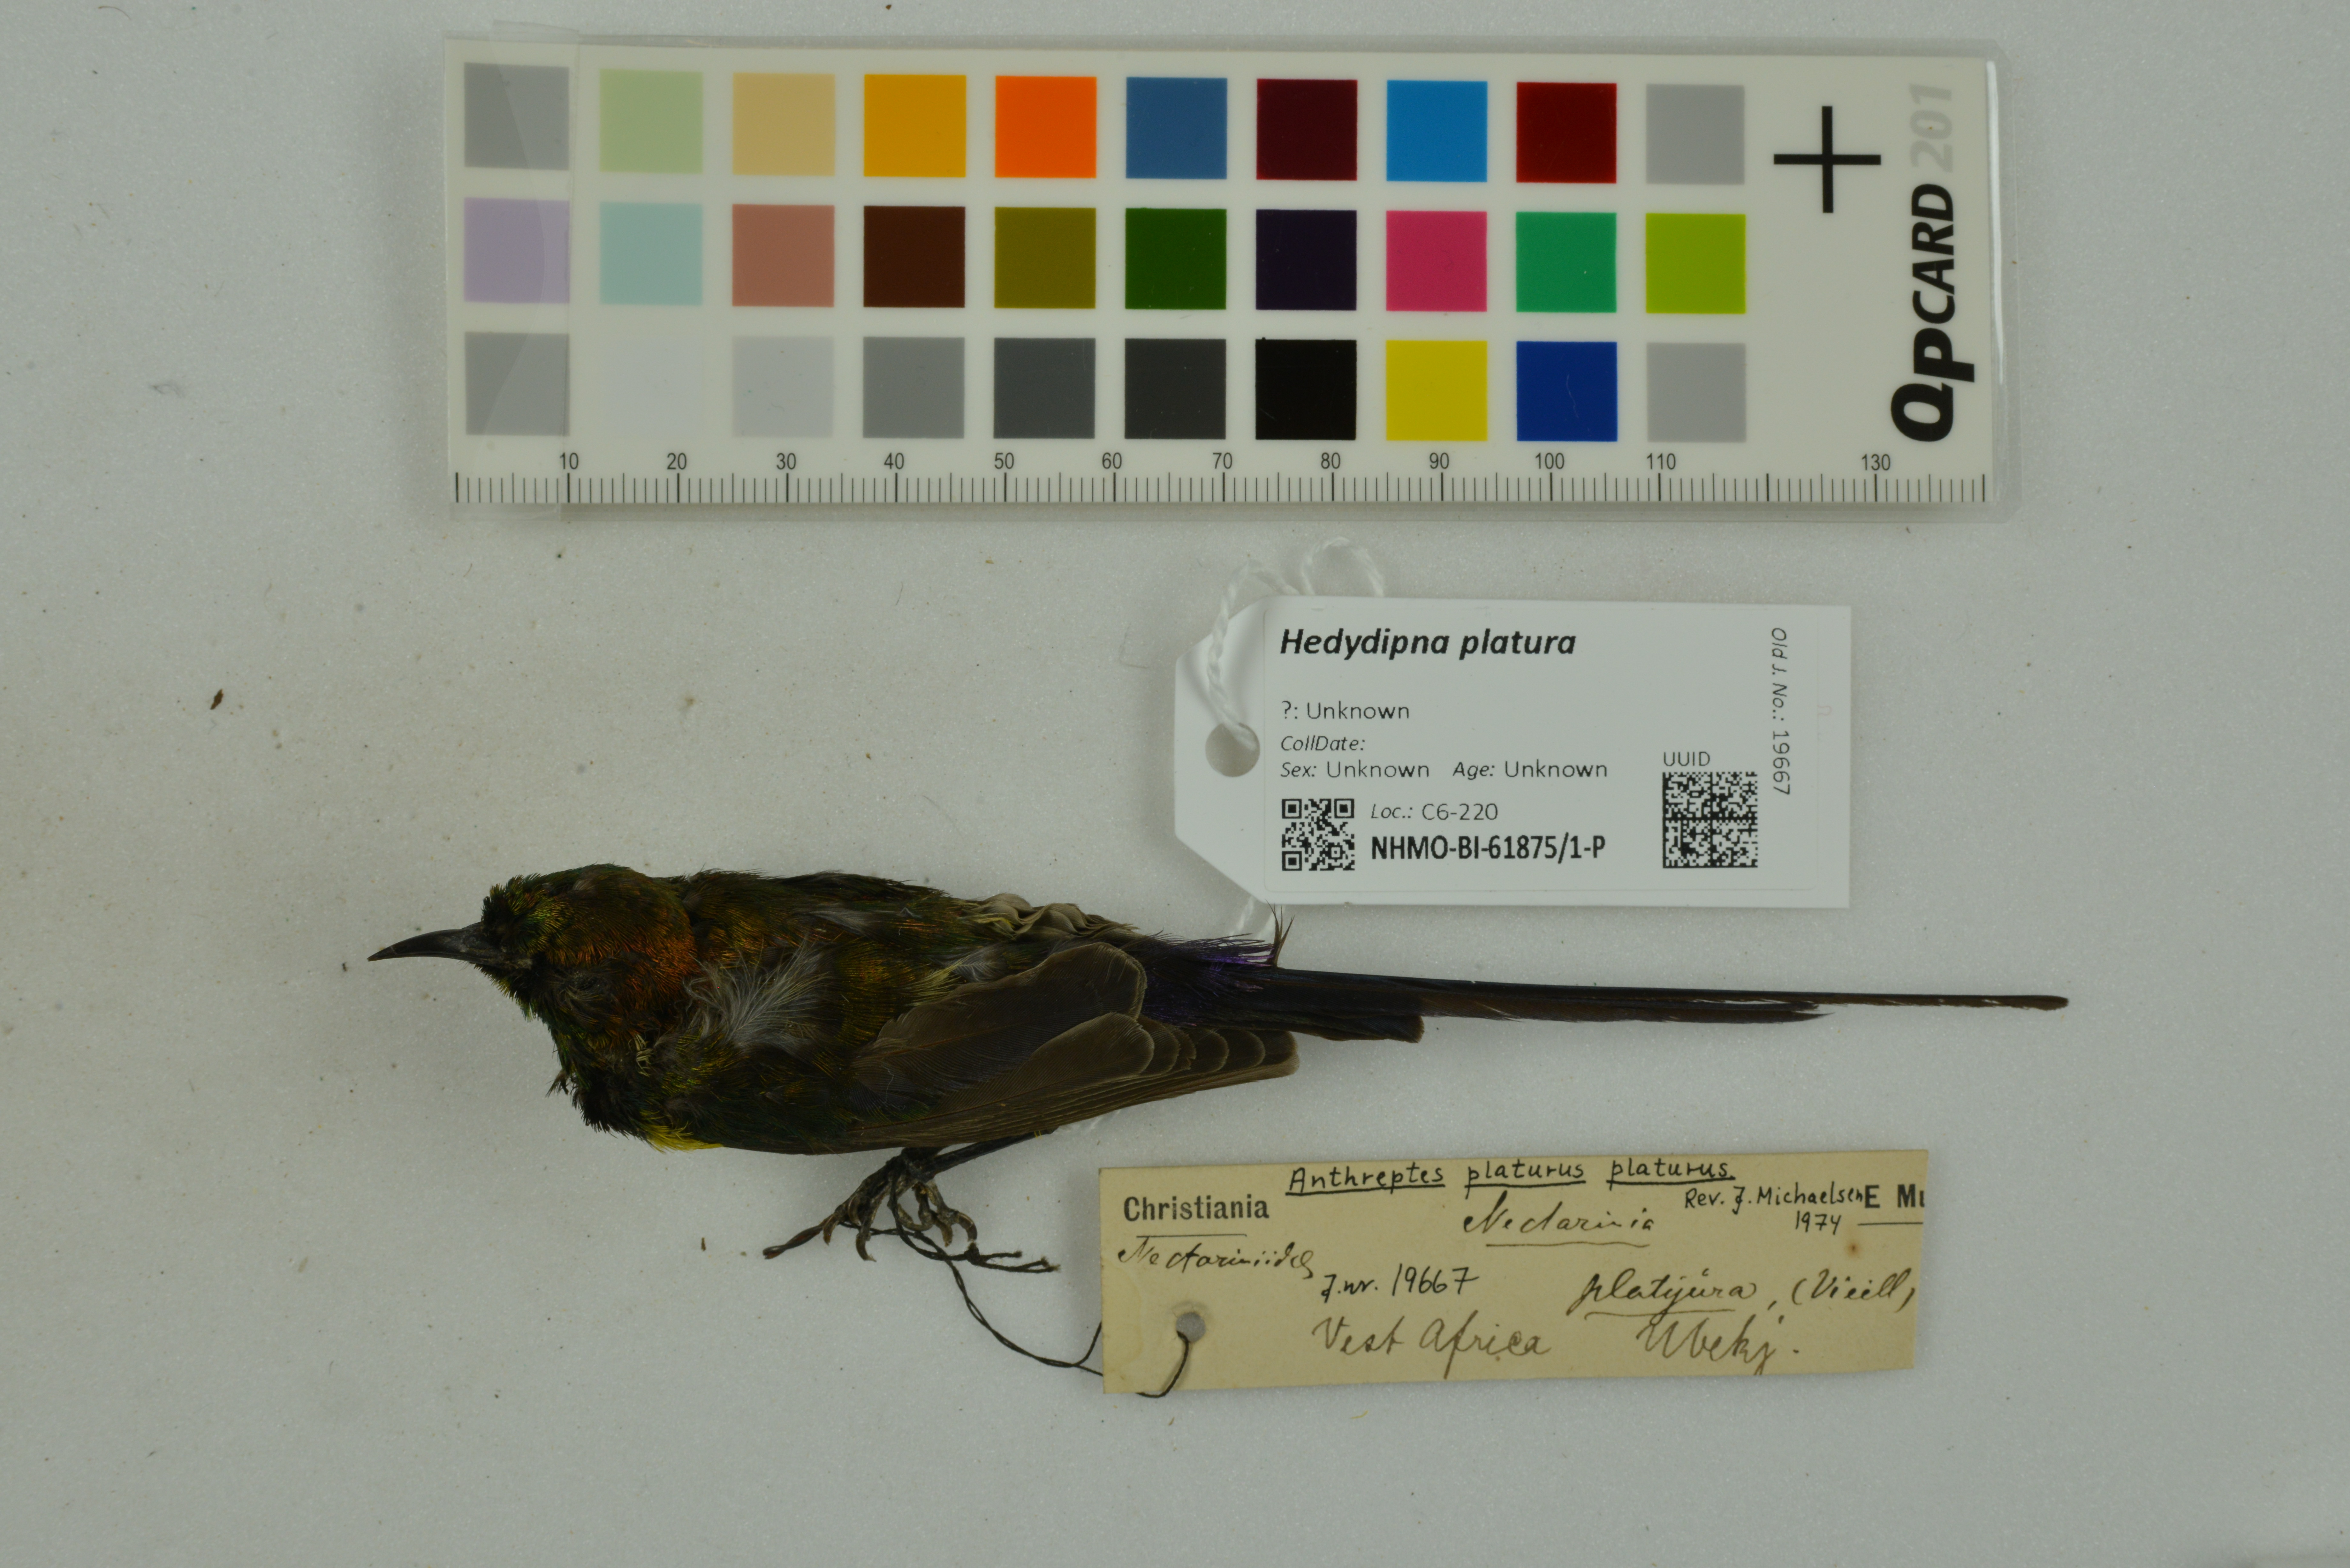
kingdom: Animalia
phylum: Chordata
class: Aves
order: Passeriformes
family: Nectariniidae
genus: Hedydipna
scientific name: Hedydipna platura
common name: Pygmy sunbird
